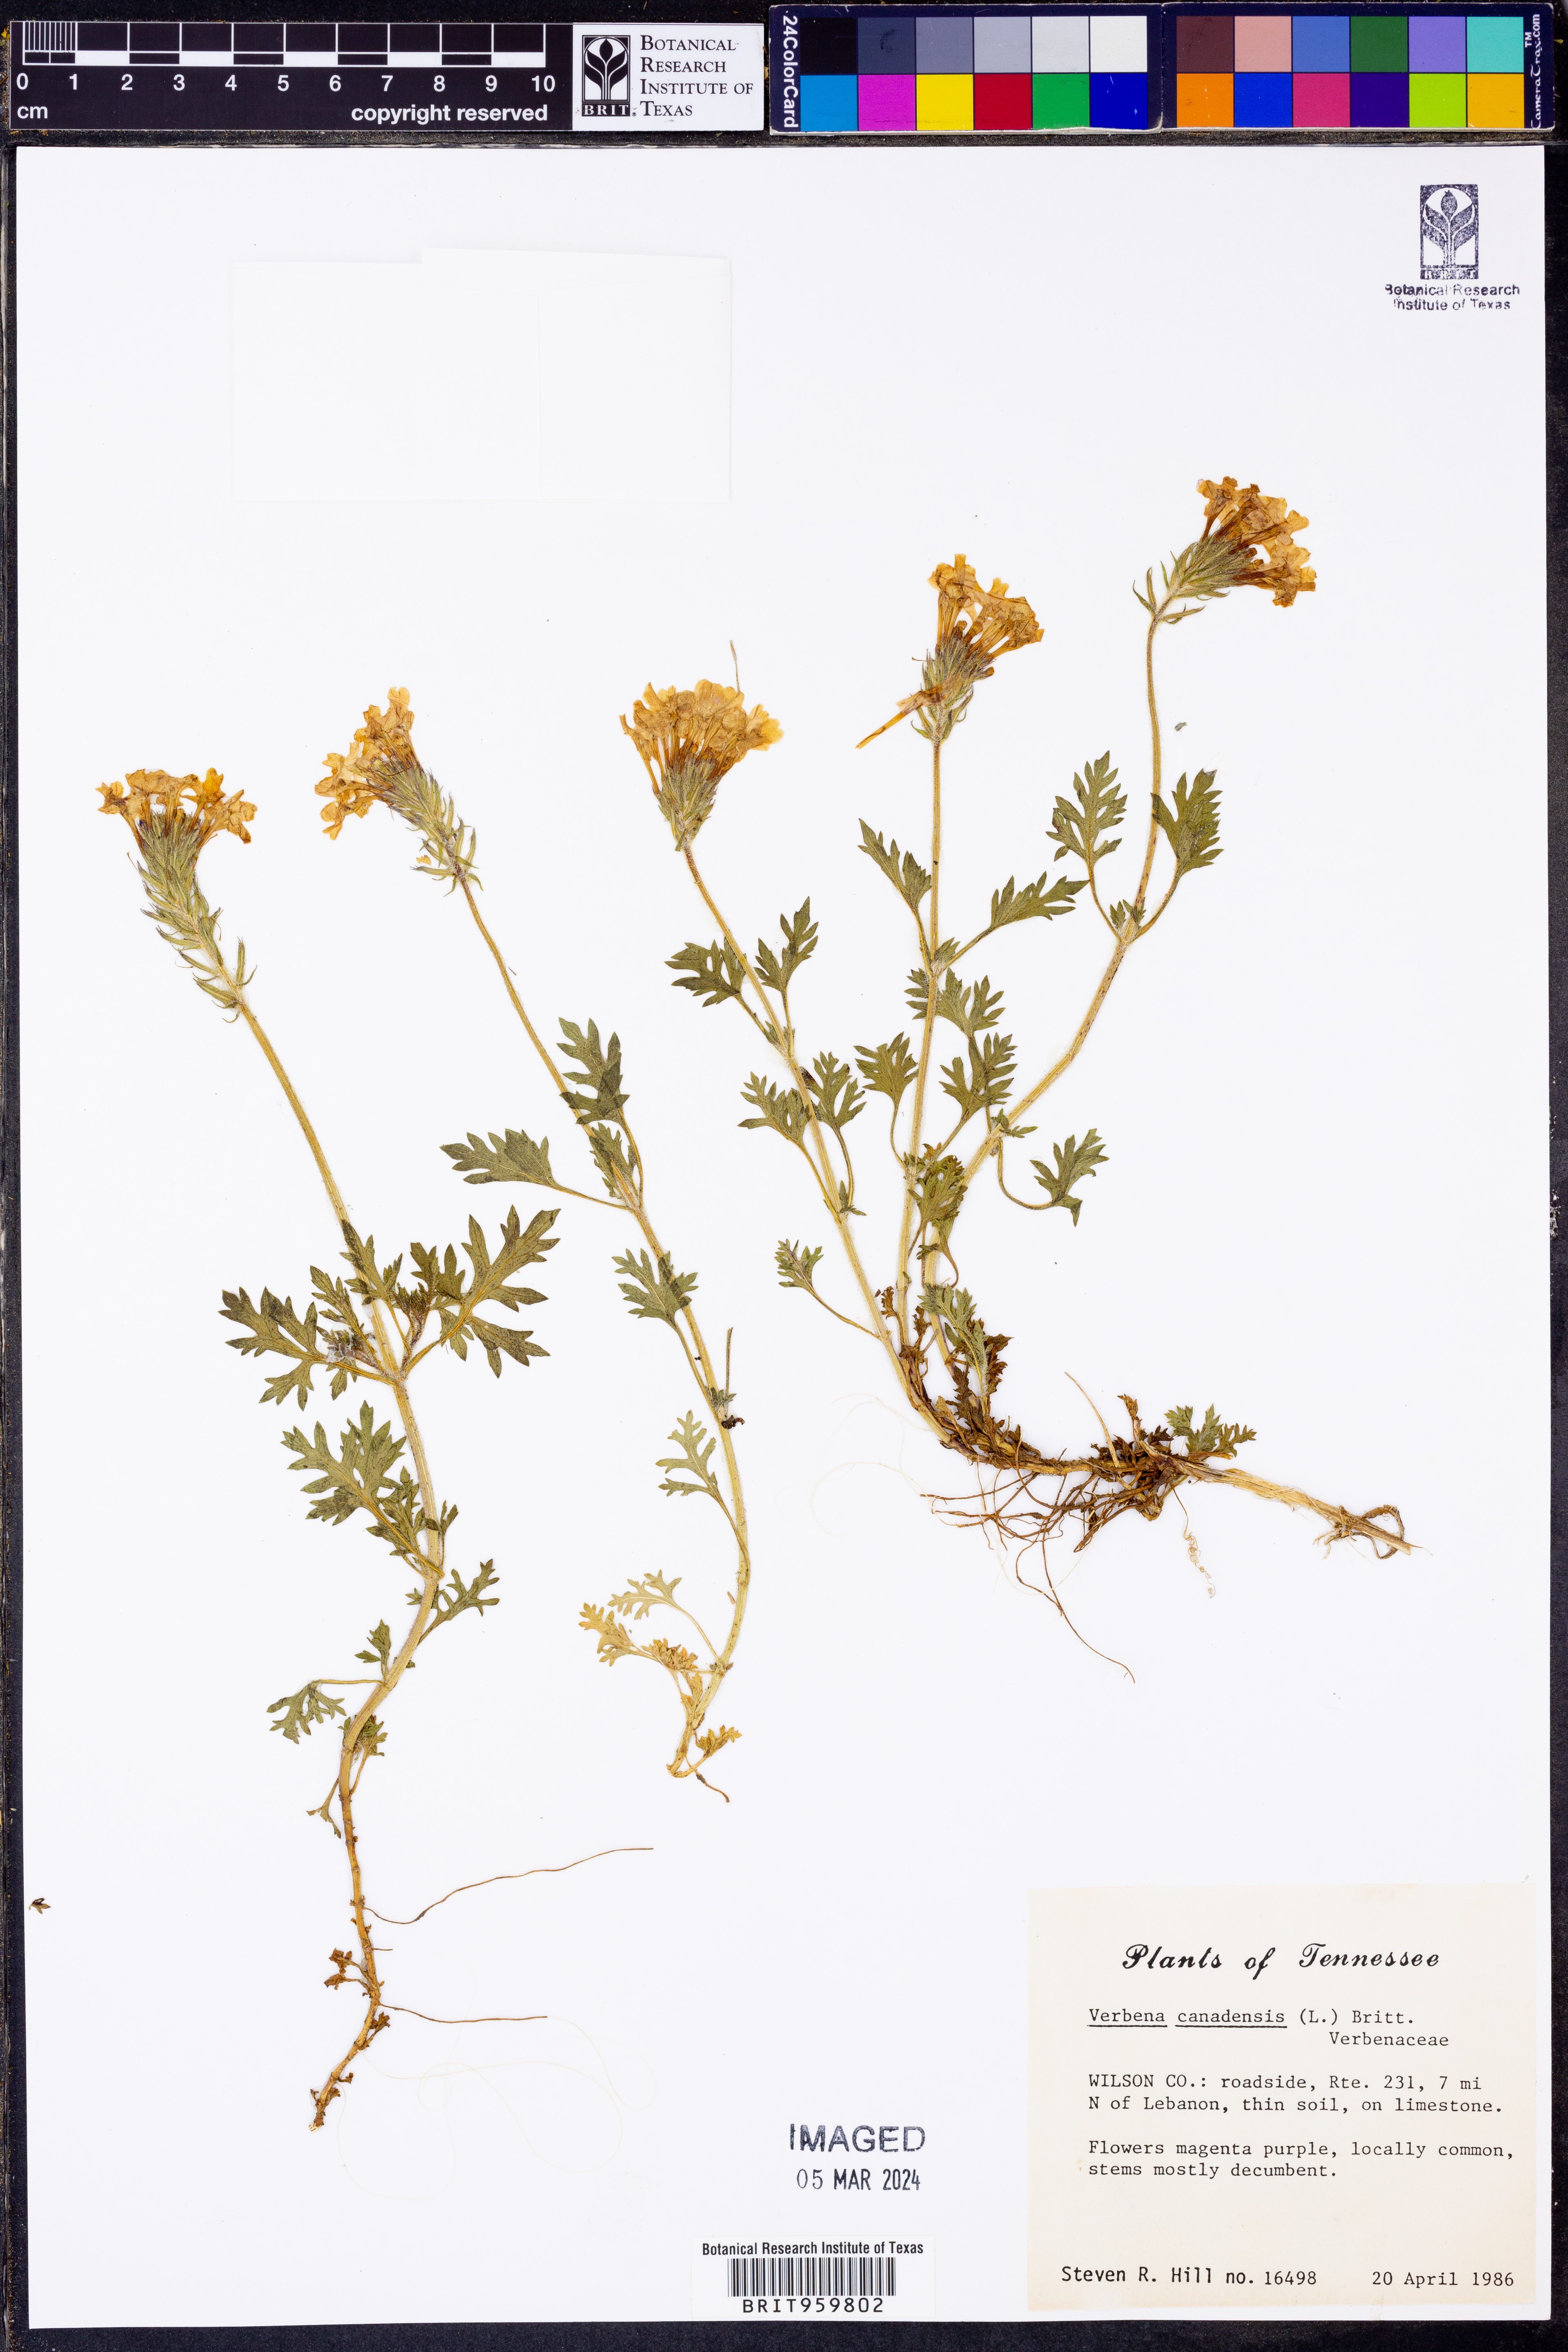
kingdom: Plantae
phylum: Tracheophyta
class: Magnoliopsida
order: Lamiales
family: Verbenaceae
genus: Verbena
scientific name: Verbena canadensis
